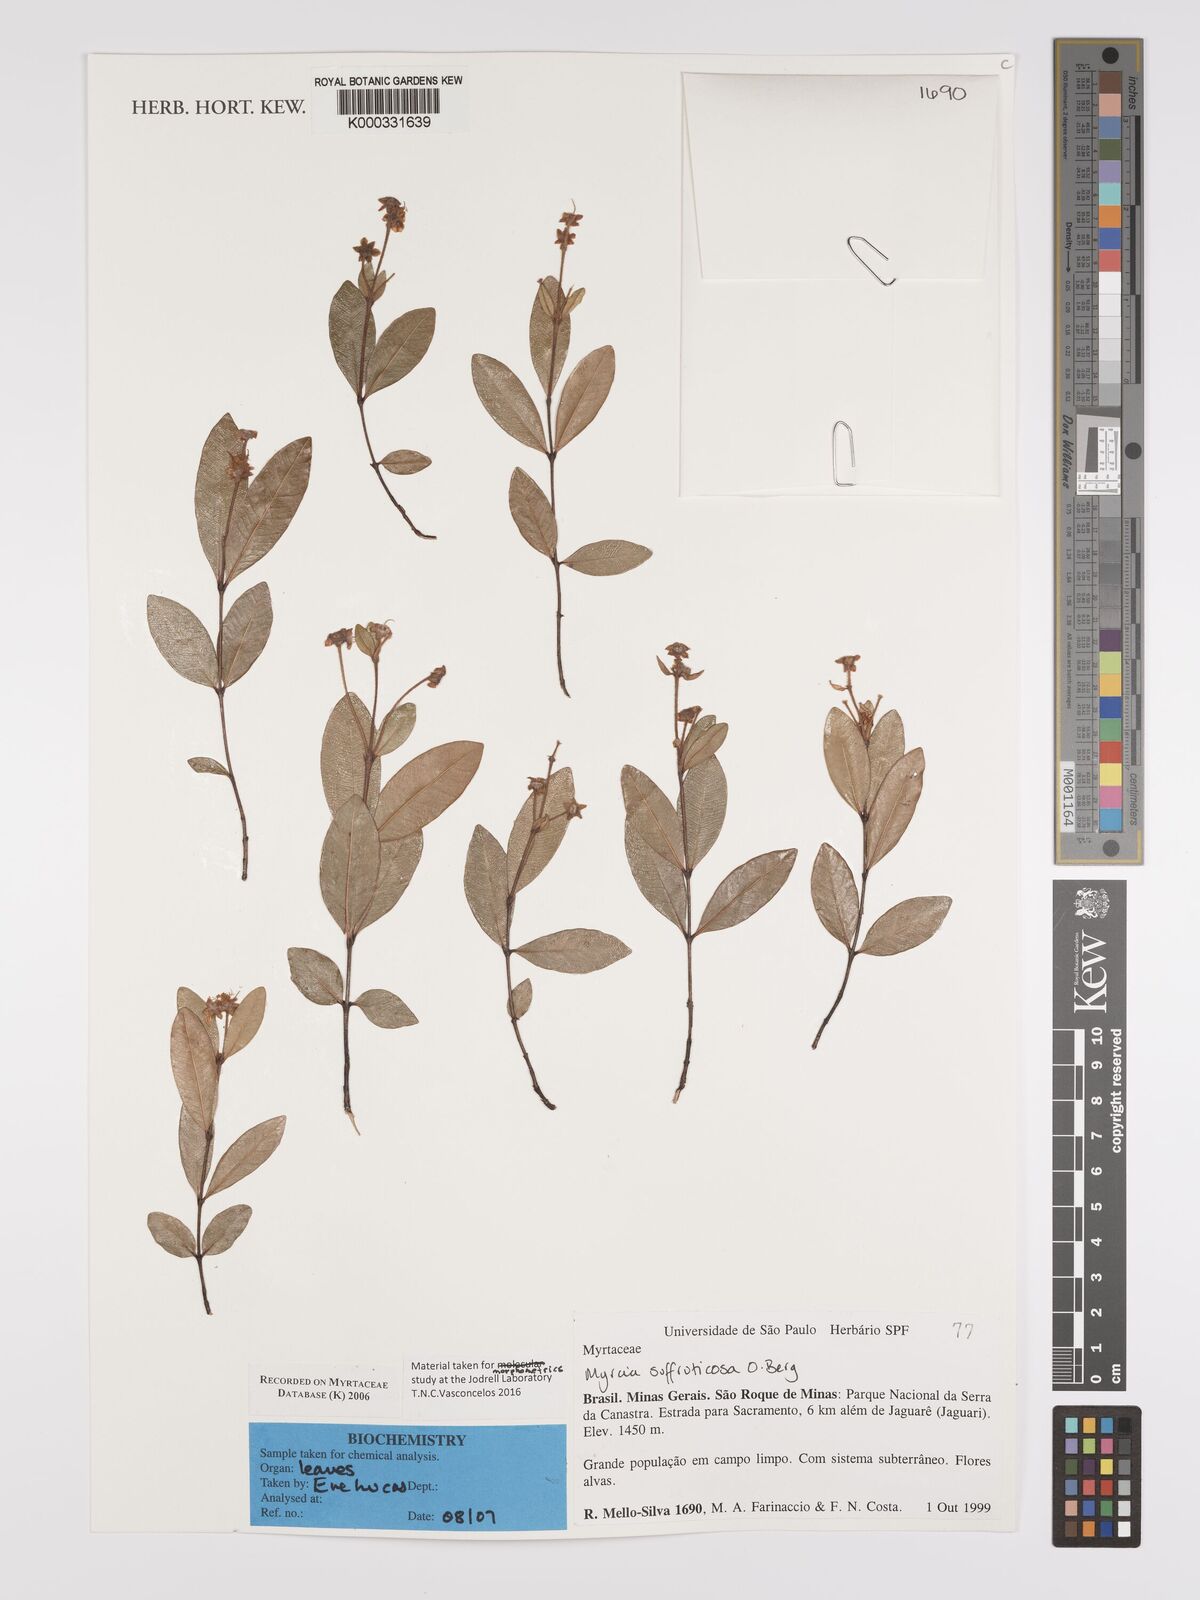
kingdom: Plantae
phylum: Tracheophyta
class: Magnoliopsida
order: Myrtales
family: Myrtaceae
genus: Myrcia
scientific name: Myrcia suffruticosa
